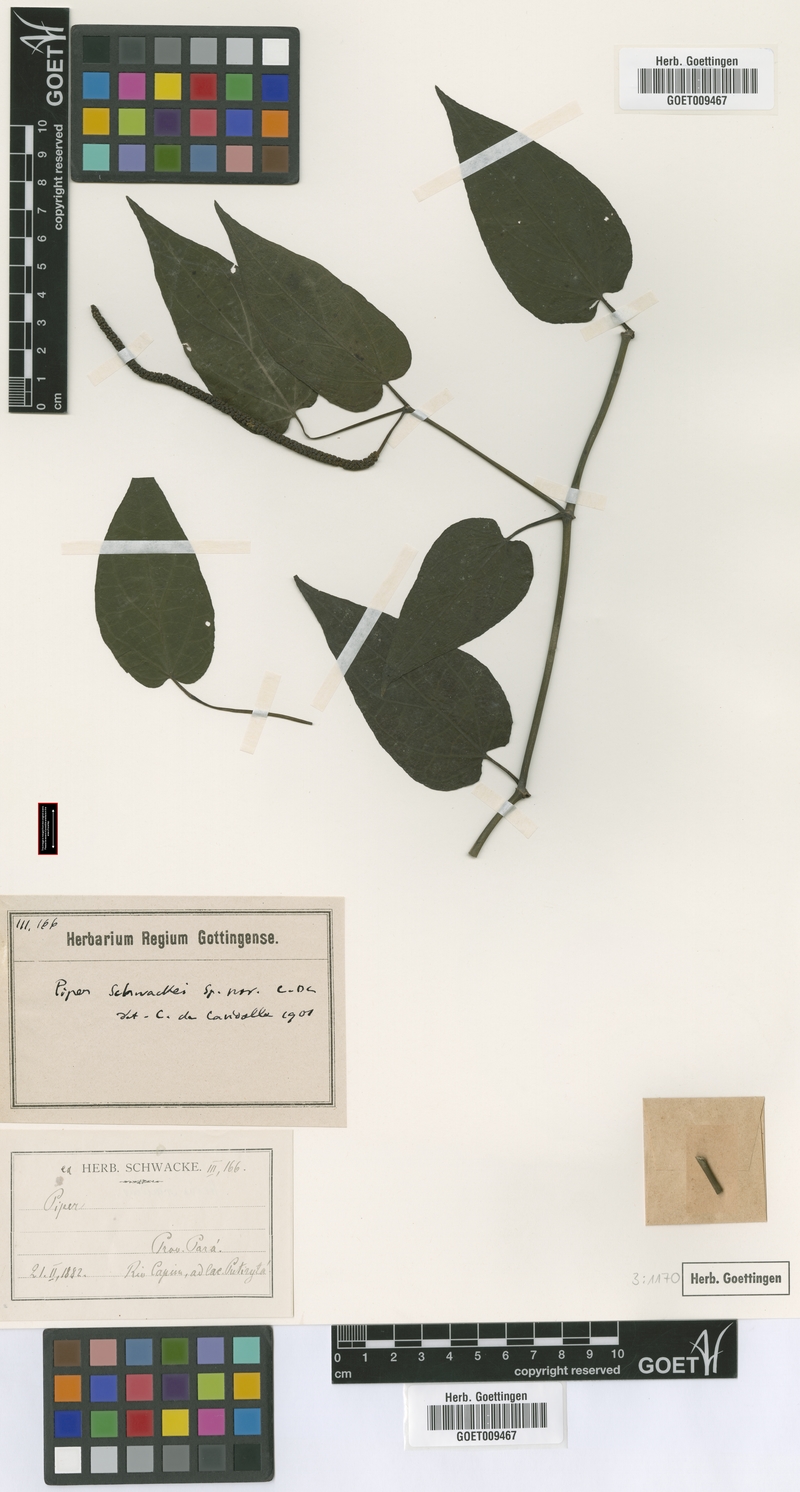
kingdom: Plantae
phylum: Tracheophyta
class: Magnoliopsida
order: Piperales
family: Piperaceae
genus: Piper
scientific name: Piper schwackei
